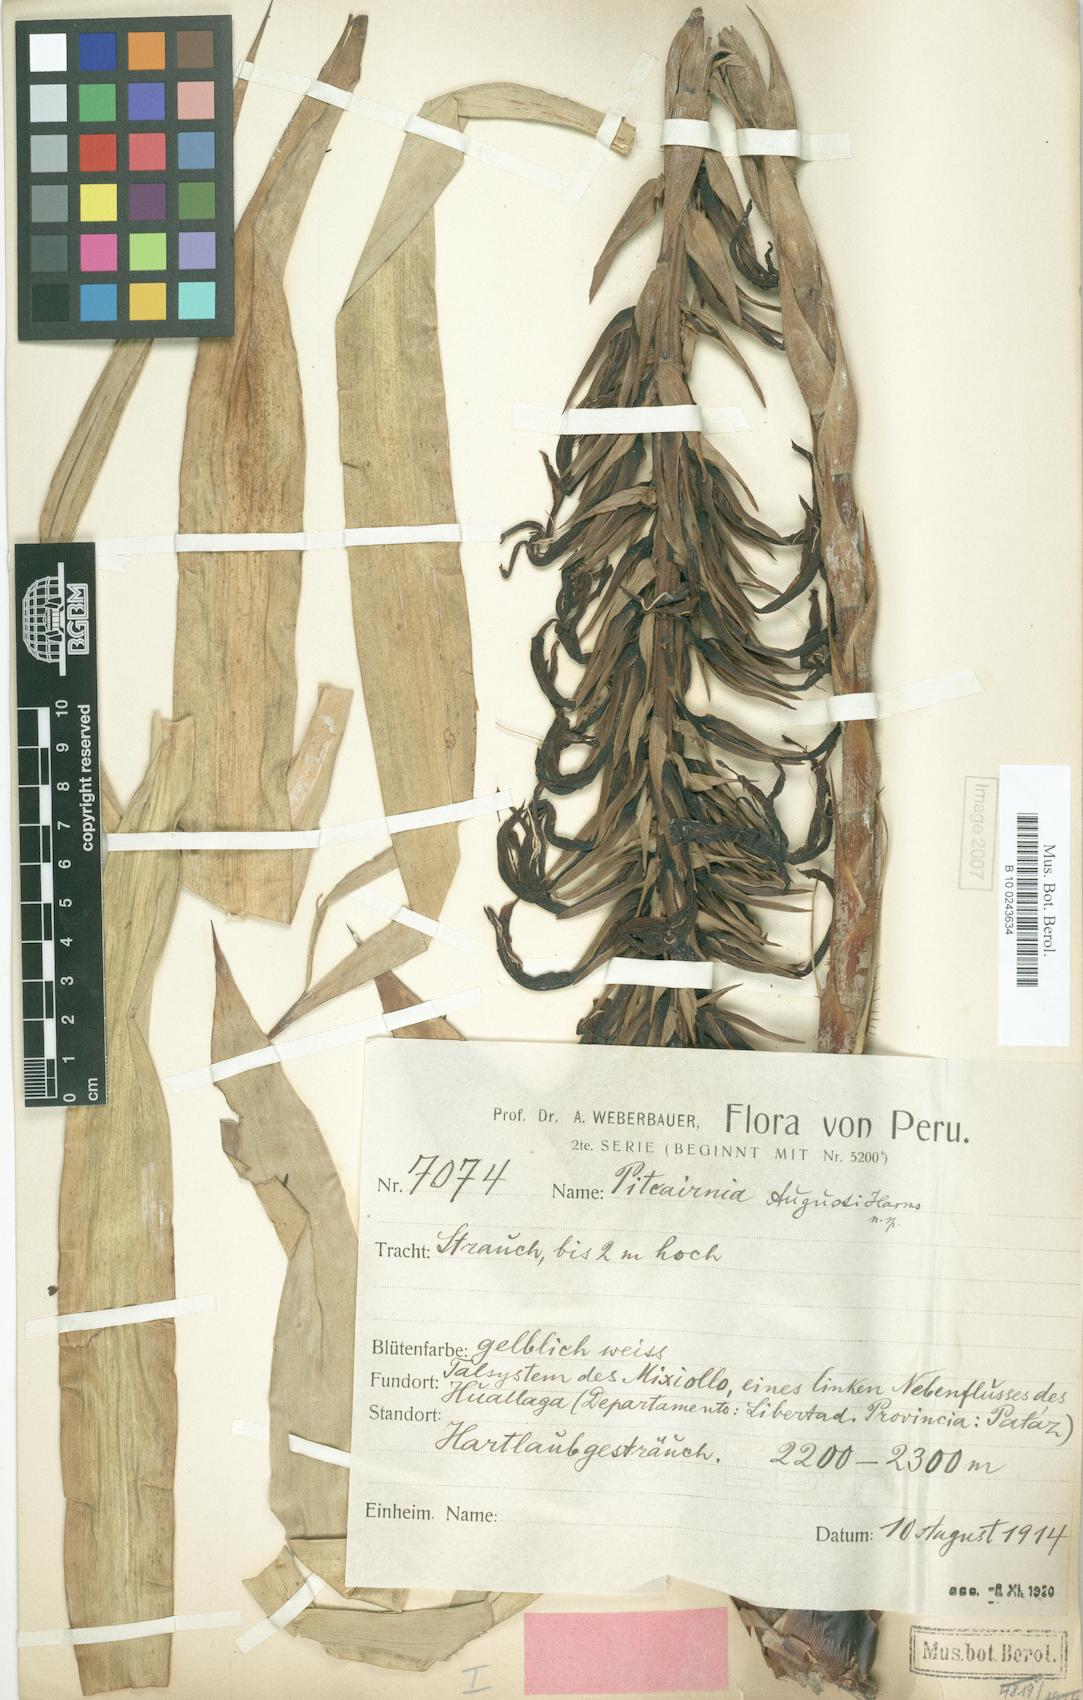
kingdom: Plantae
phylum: Tracheophyta
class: Liliopsida
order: Poales
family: Bromeliaceae
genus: Pitcairnia
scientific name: Pitcairnia augusti
